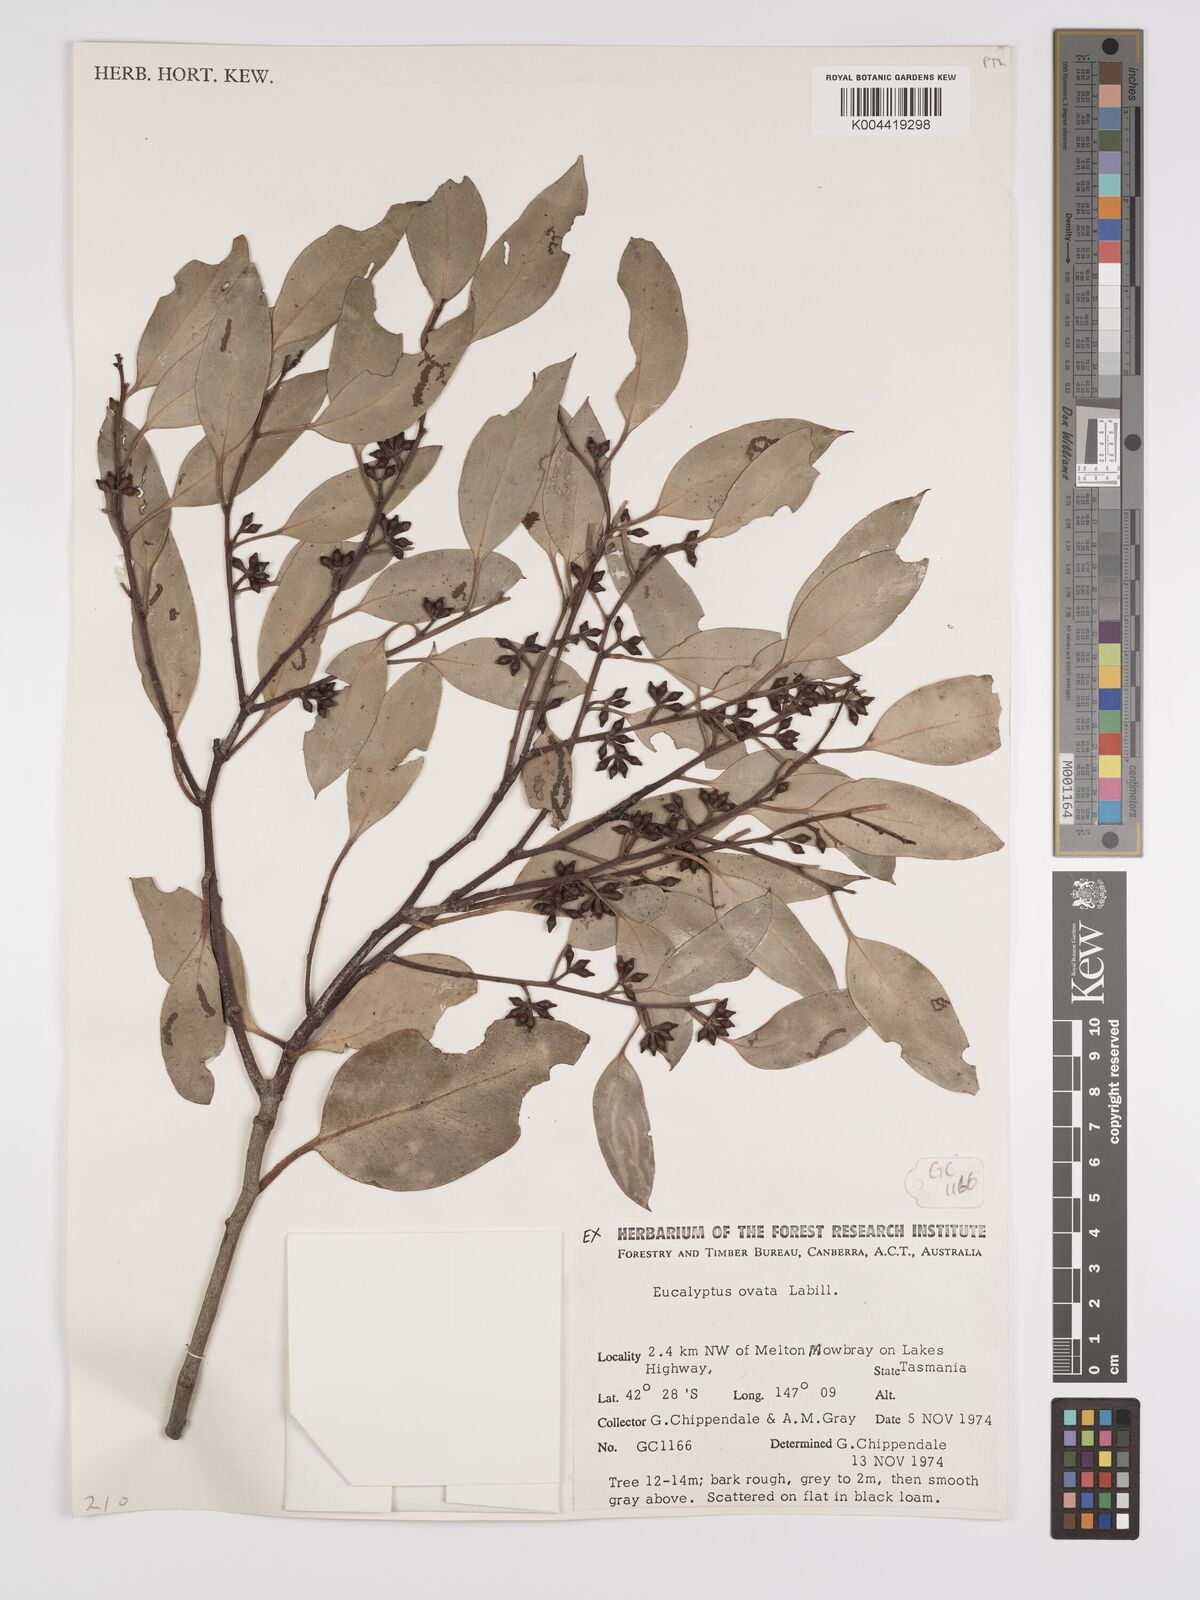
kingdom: Plantae
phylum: Tracheophyta
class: Magnoliopsida
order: Myrtales
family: Myrtaceae
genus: Eucalyptus
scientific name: Eucalyptus ovata
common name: Black-gum
